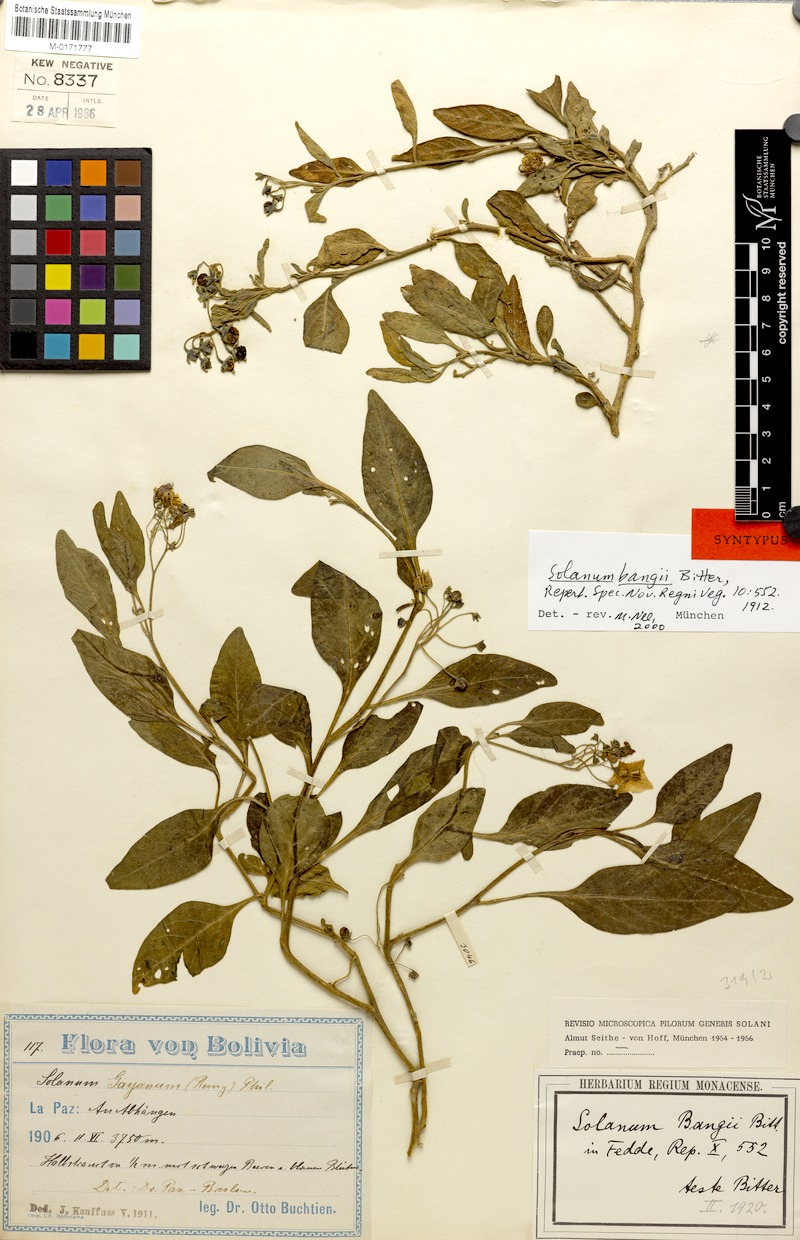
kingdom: Plantae
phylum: Tracheophyta
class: Magnoliopsida
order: Solanales
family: Solanaceae
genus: Solanum
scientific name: Solanum gonocladum
